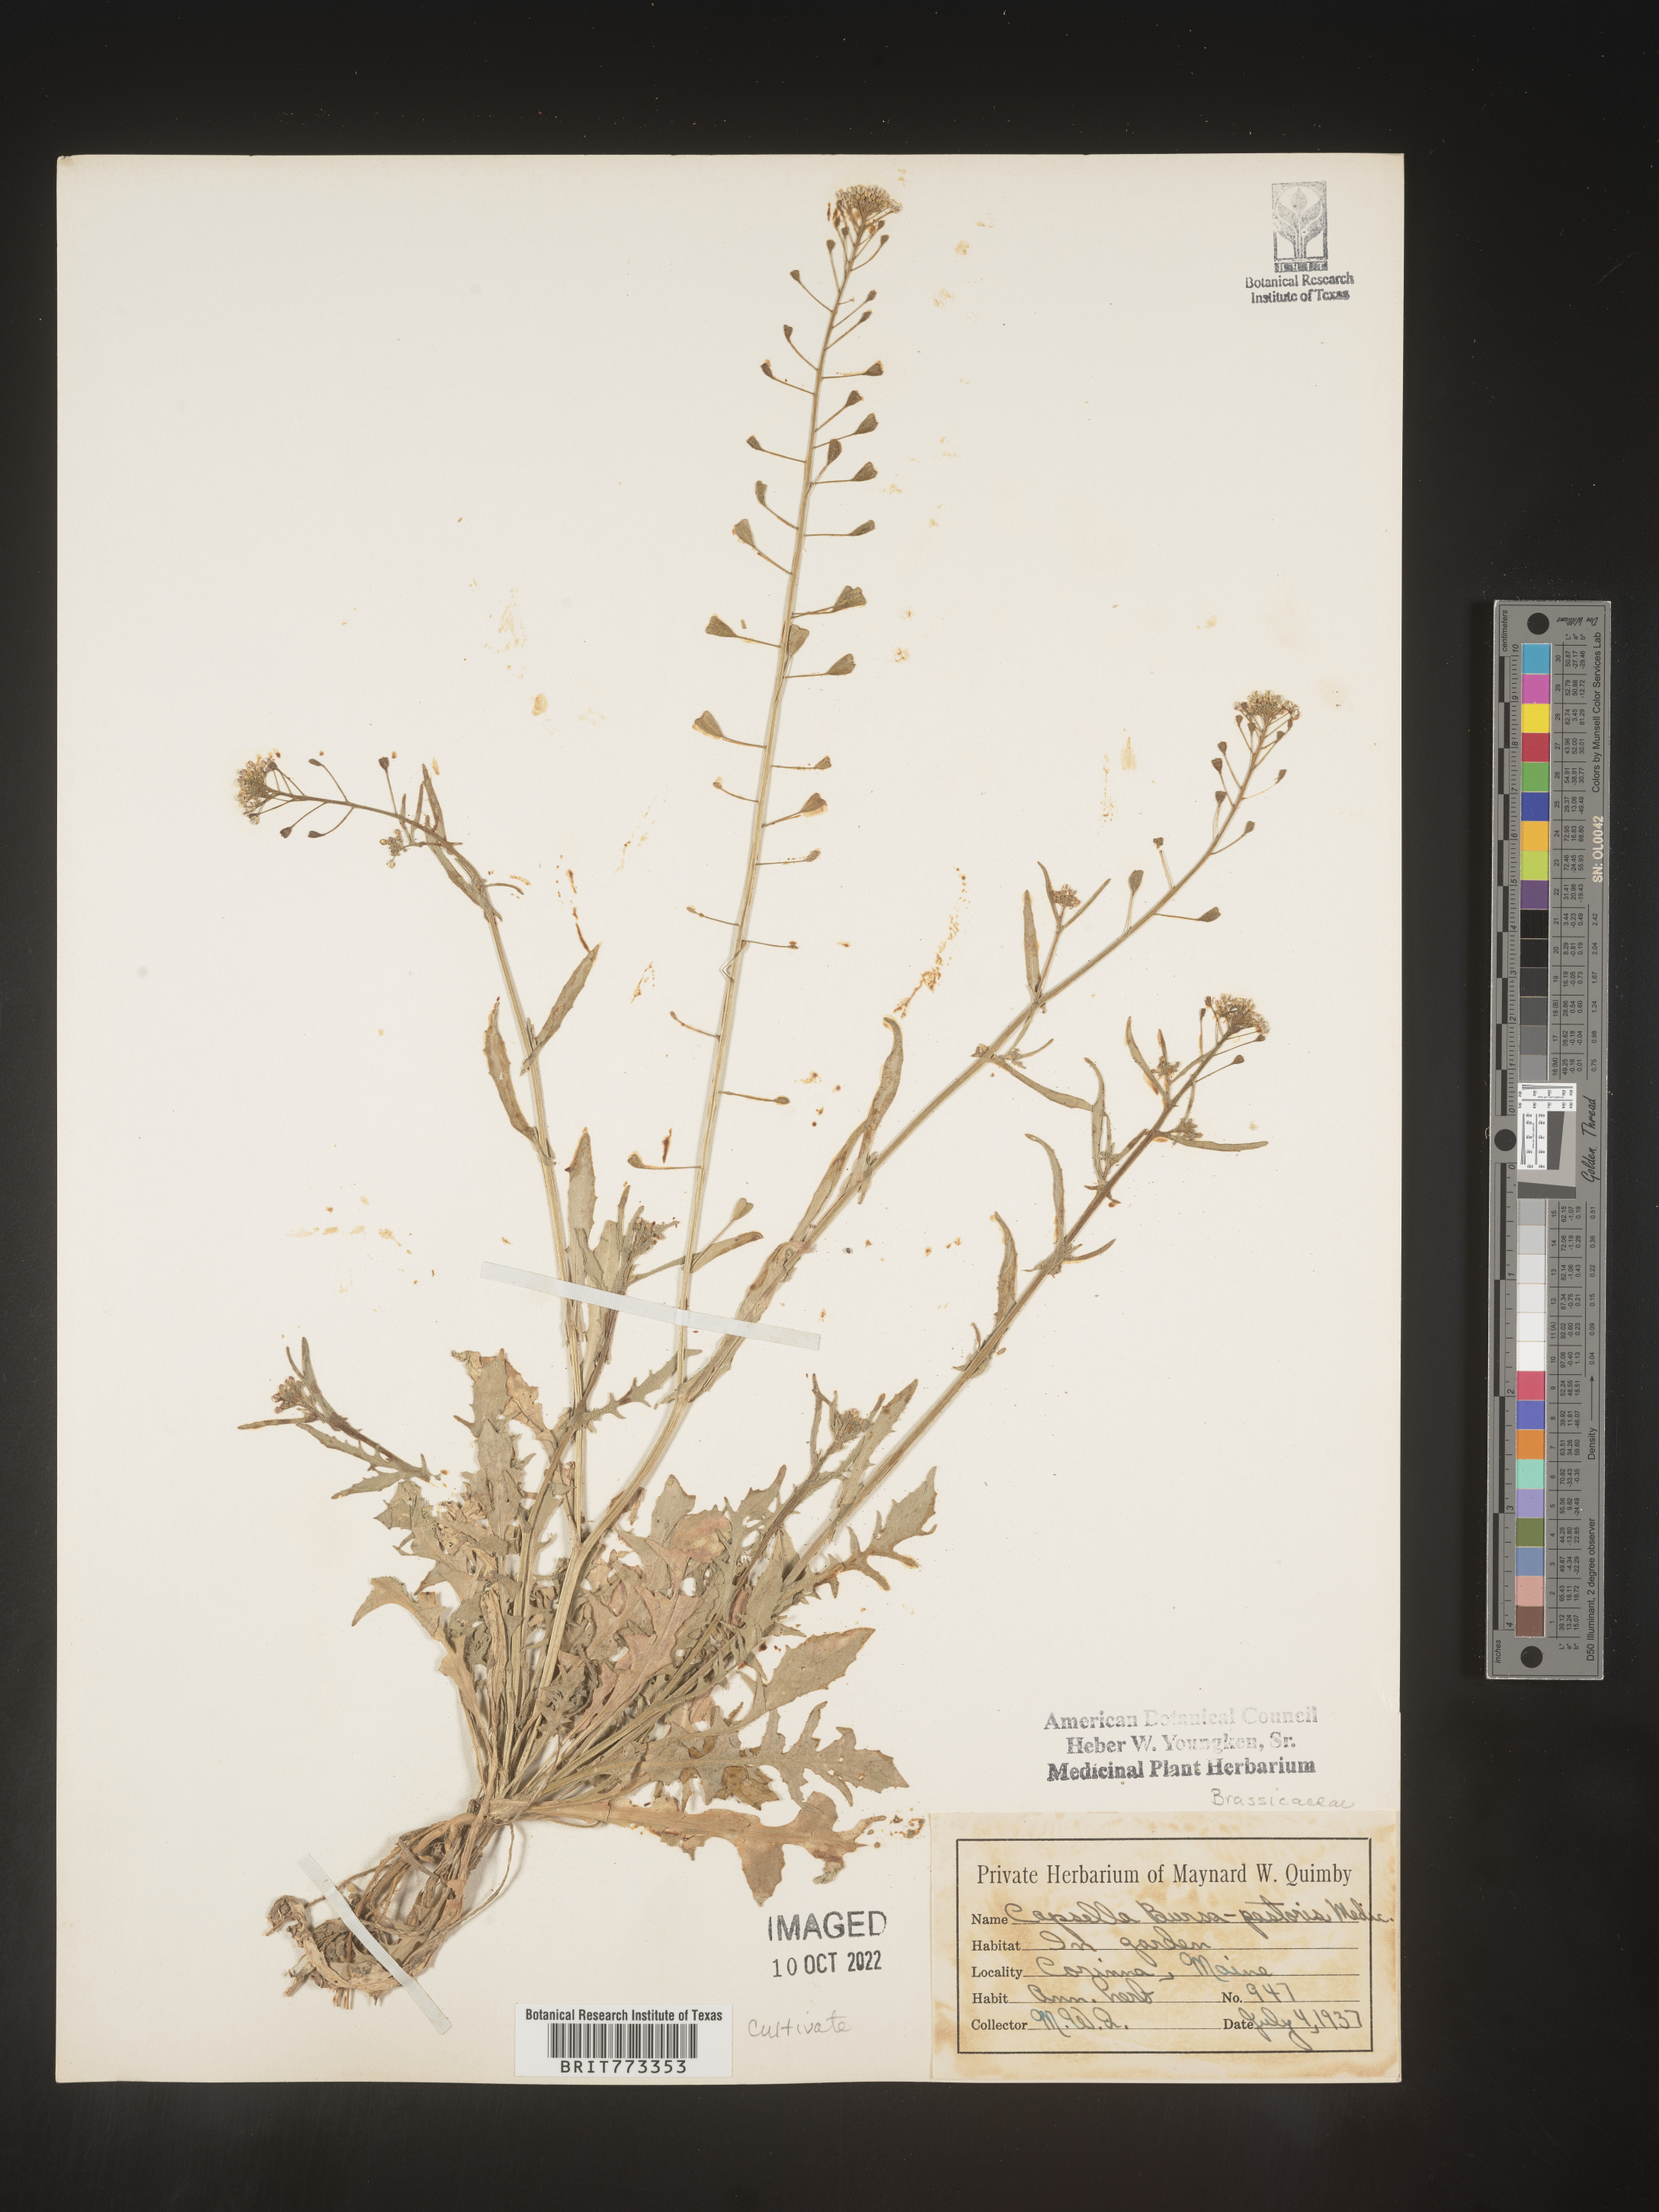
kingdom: Plantae
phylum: Tracheophyta
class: Magnoliopsida
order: Brassicales
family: Brassicaceae
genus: Capsella
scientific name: Capsella
